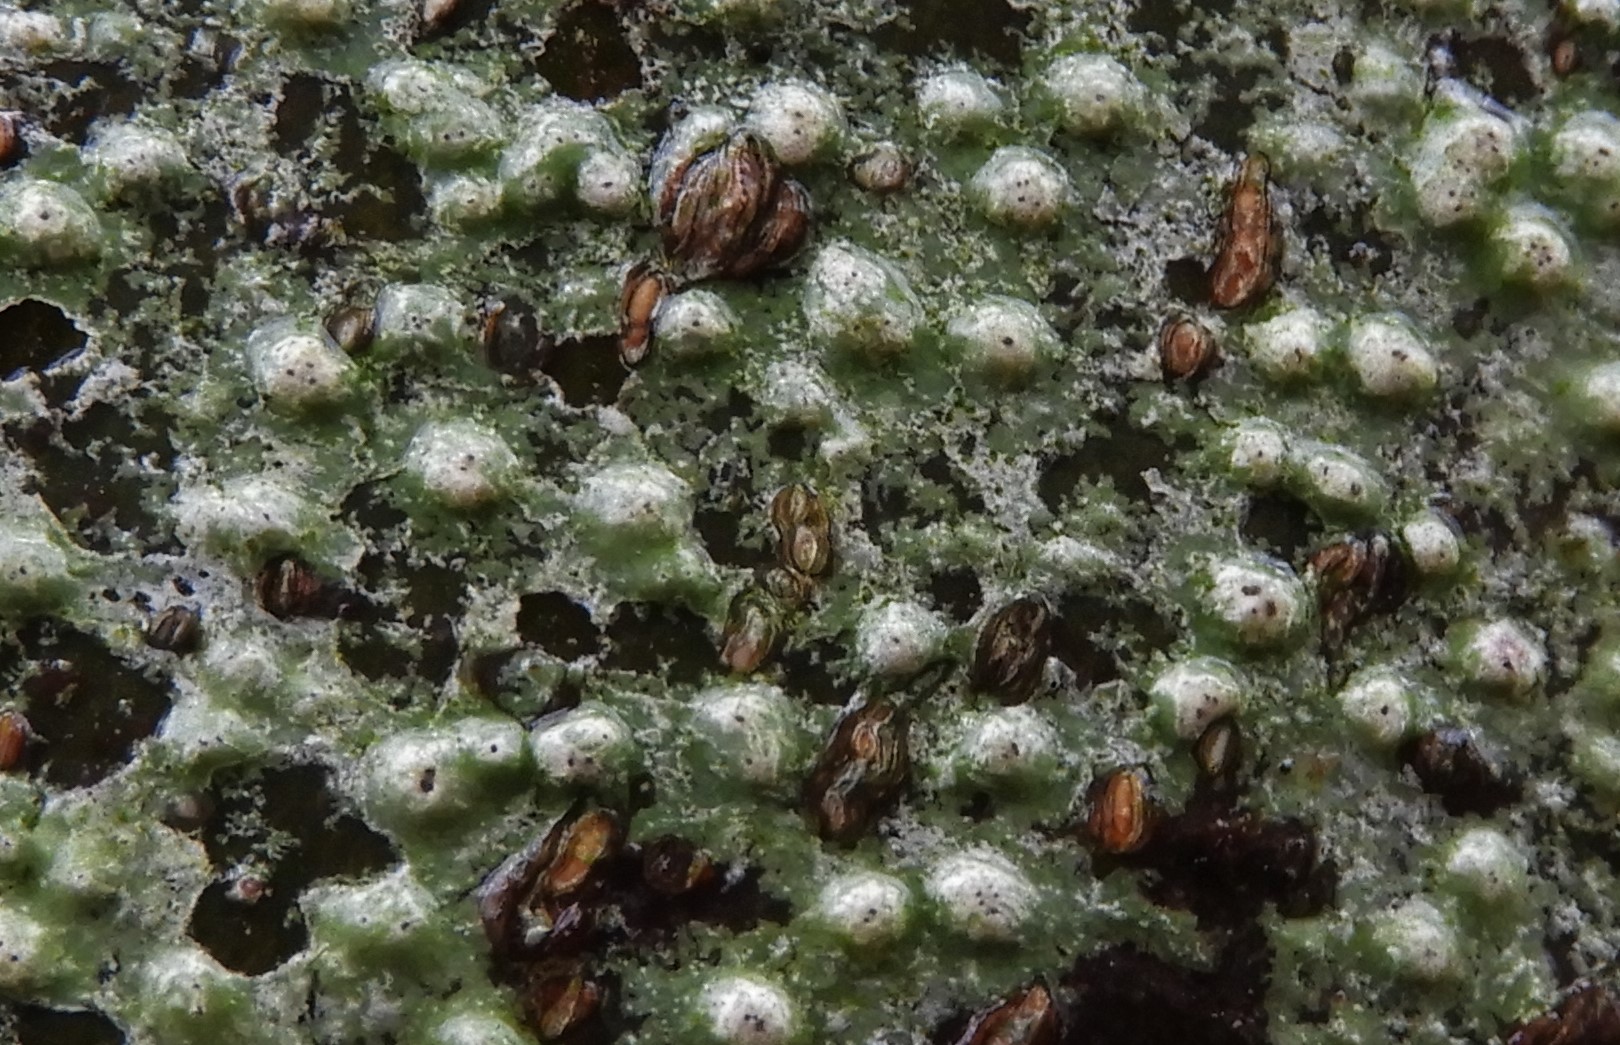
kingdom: Fungi
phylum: Ascomycota
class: Lecanoromycetes
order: Pertusariales
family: Pertusariaceae
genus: Pertusaria
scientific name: Pertusaria leioplaca
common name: tynd prikvortelav
